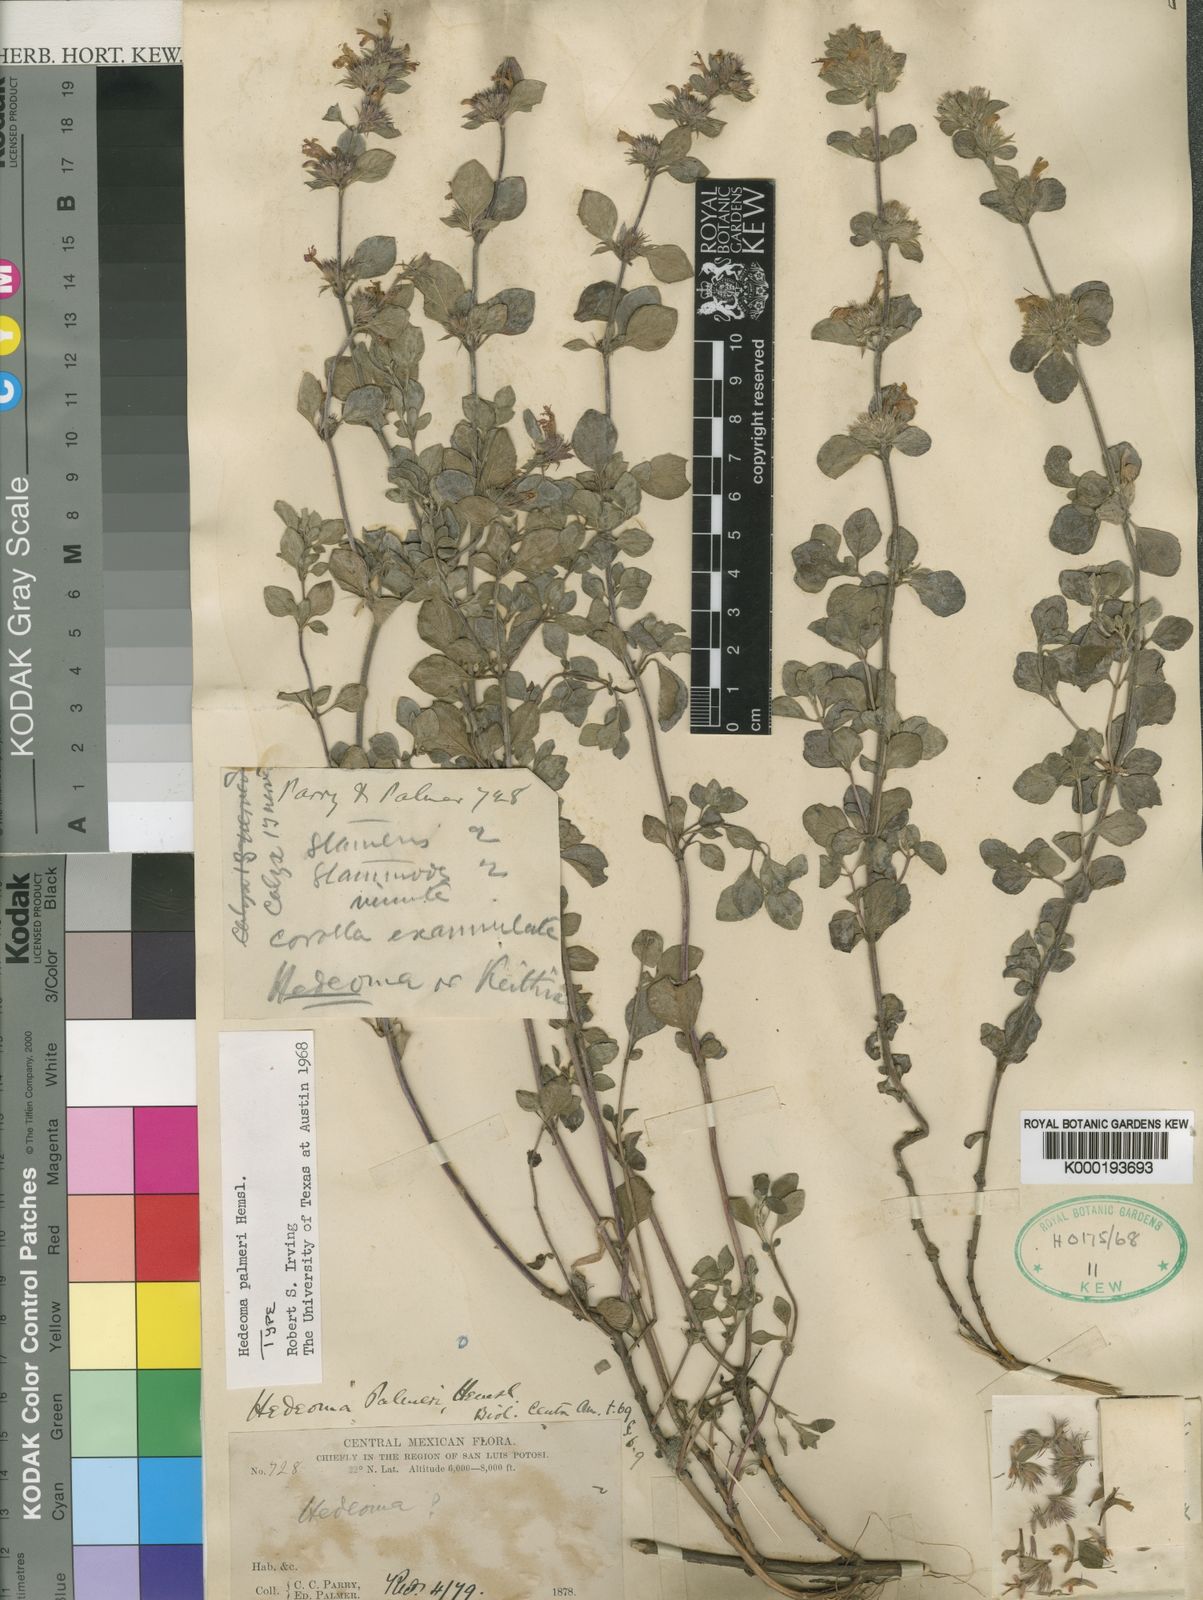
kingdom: Plantae
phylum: Tracheophyta
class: Magnoliopsida
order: Lamiales
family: Lamiaceae
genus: Hedeoma
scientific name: Hedeoma palmeri
